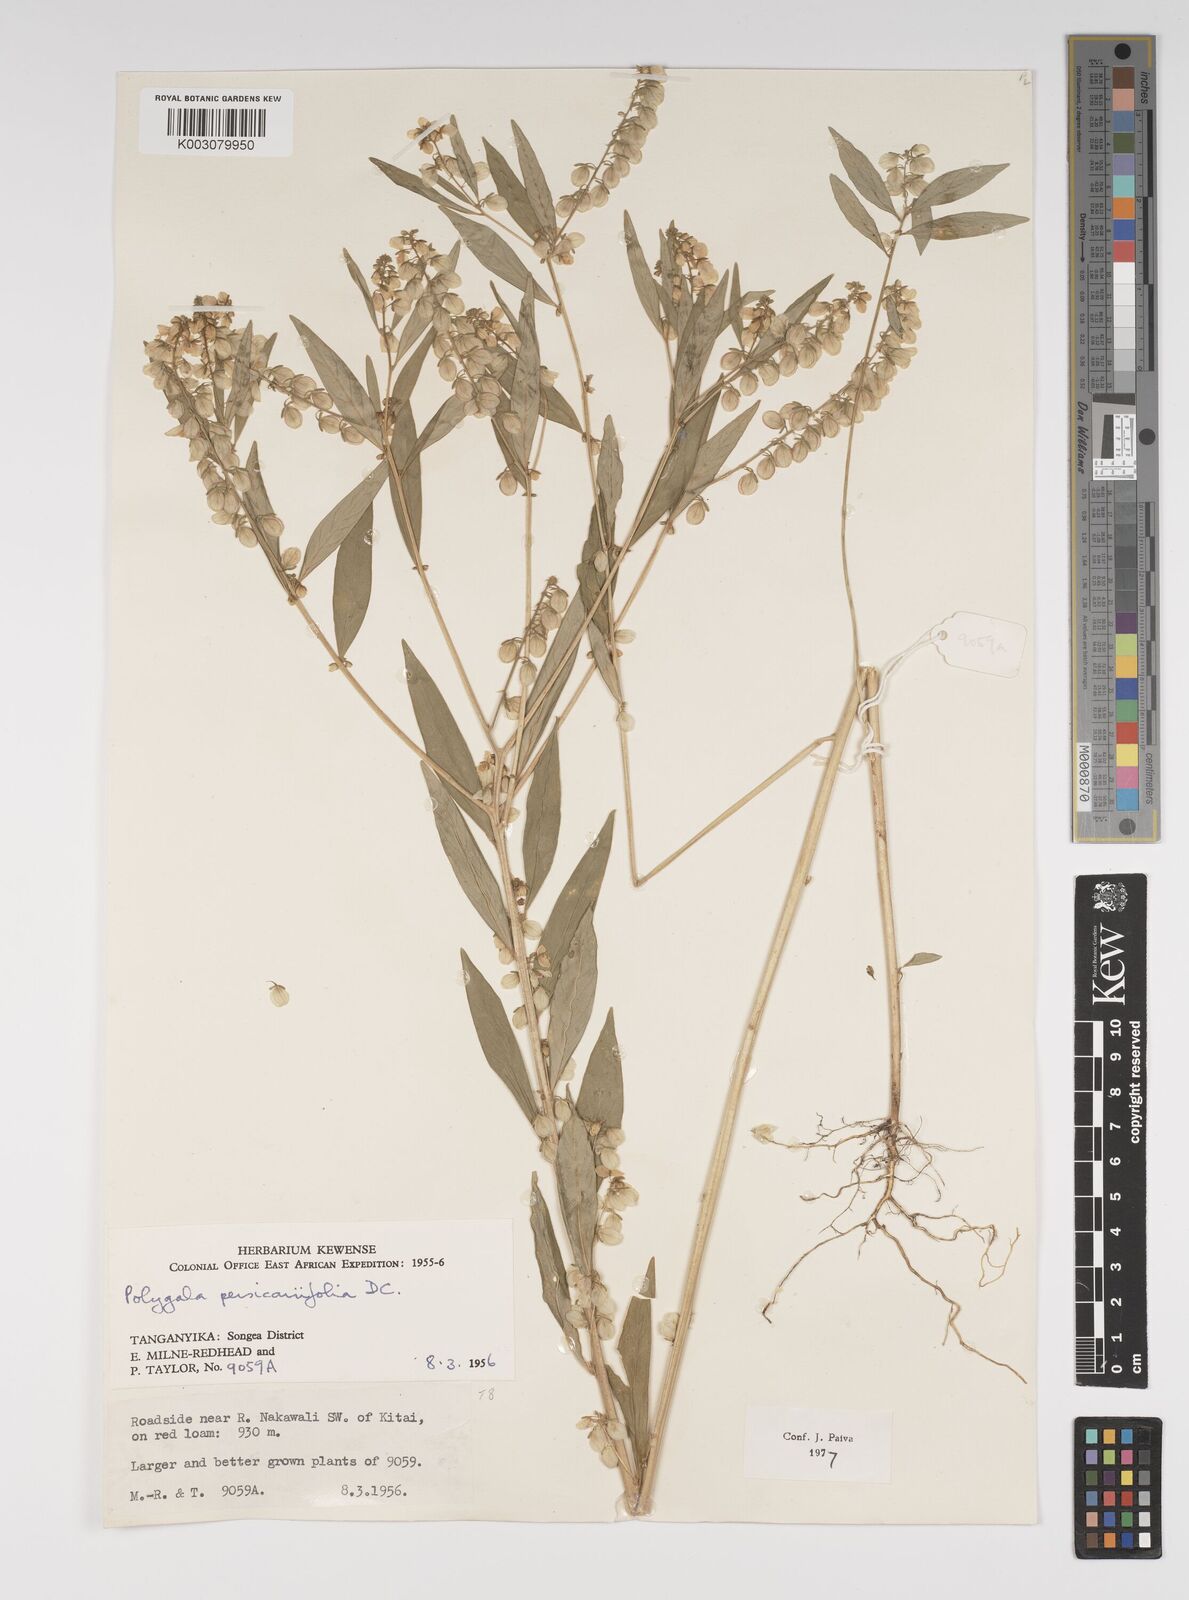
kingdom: Plantae
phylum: Tracheophyta
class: Magnoliopsida
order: Fabales
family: Polygalaceae
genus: Polygala
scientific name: Polygala persicariifolia
